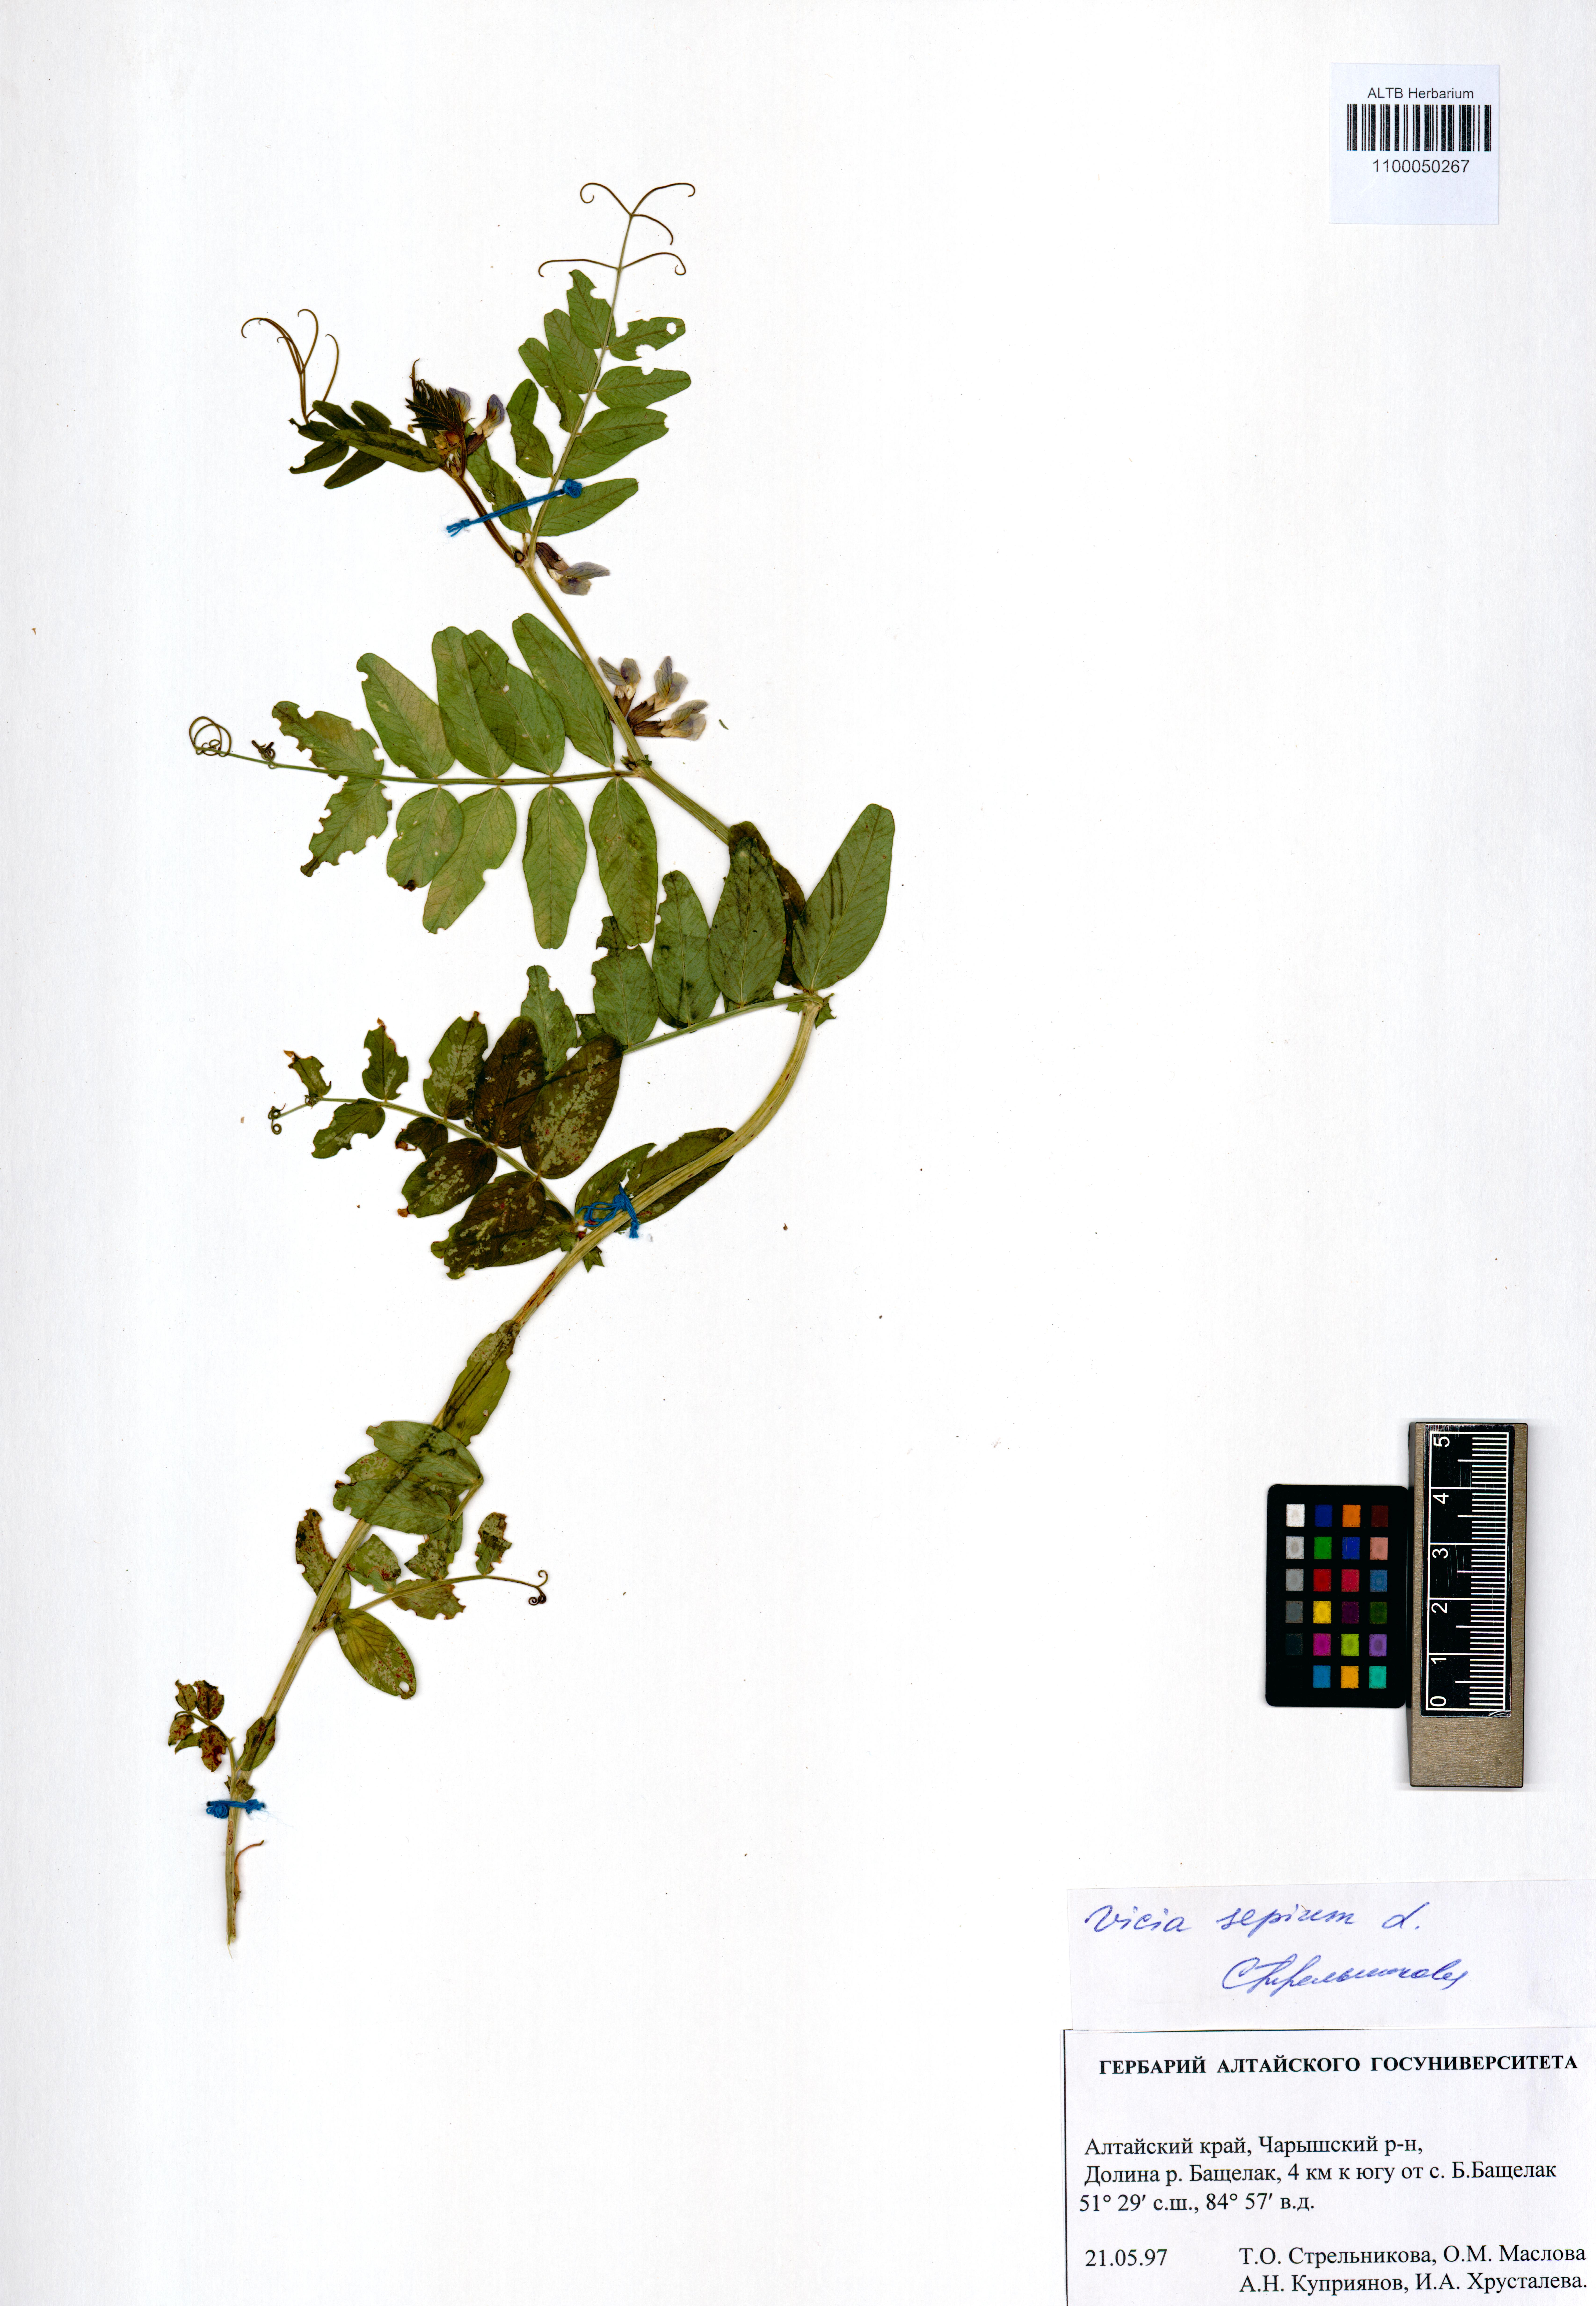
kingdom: Plantae
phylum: Tracheophyta
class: Magnoliopsida
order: Fabales
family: Fabaceae
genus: Vicia
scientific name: Vicia sepium
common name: Bush vetch
